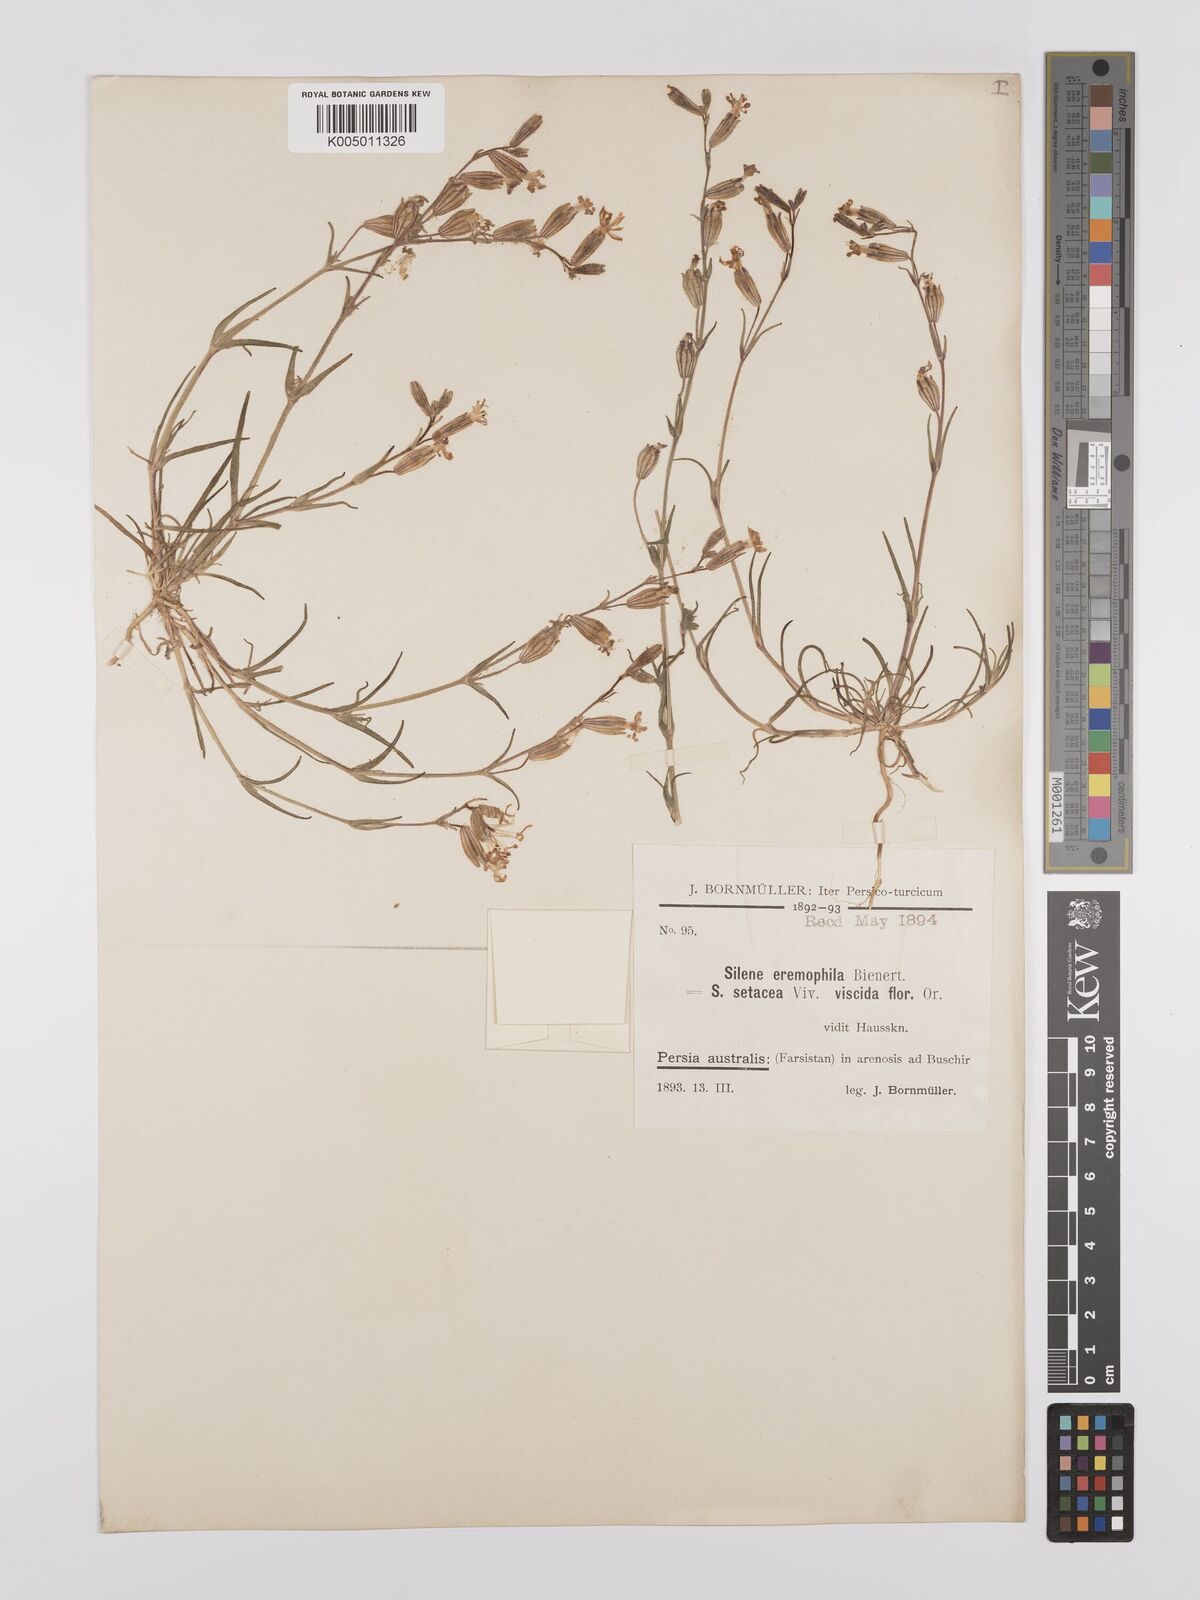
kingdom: Plantae
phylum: Tracheophyta
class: Magnoliopsida
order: Caryophyllales
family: Caryophyllaceae
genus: Silene
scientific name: Silene arabica
